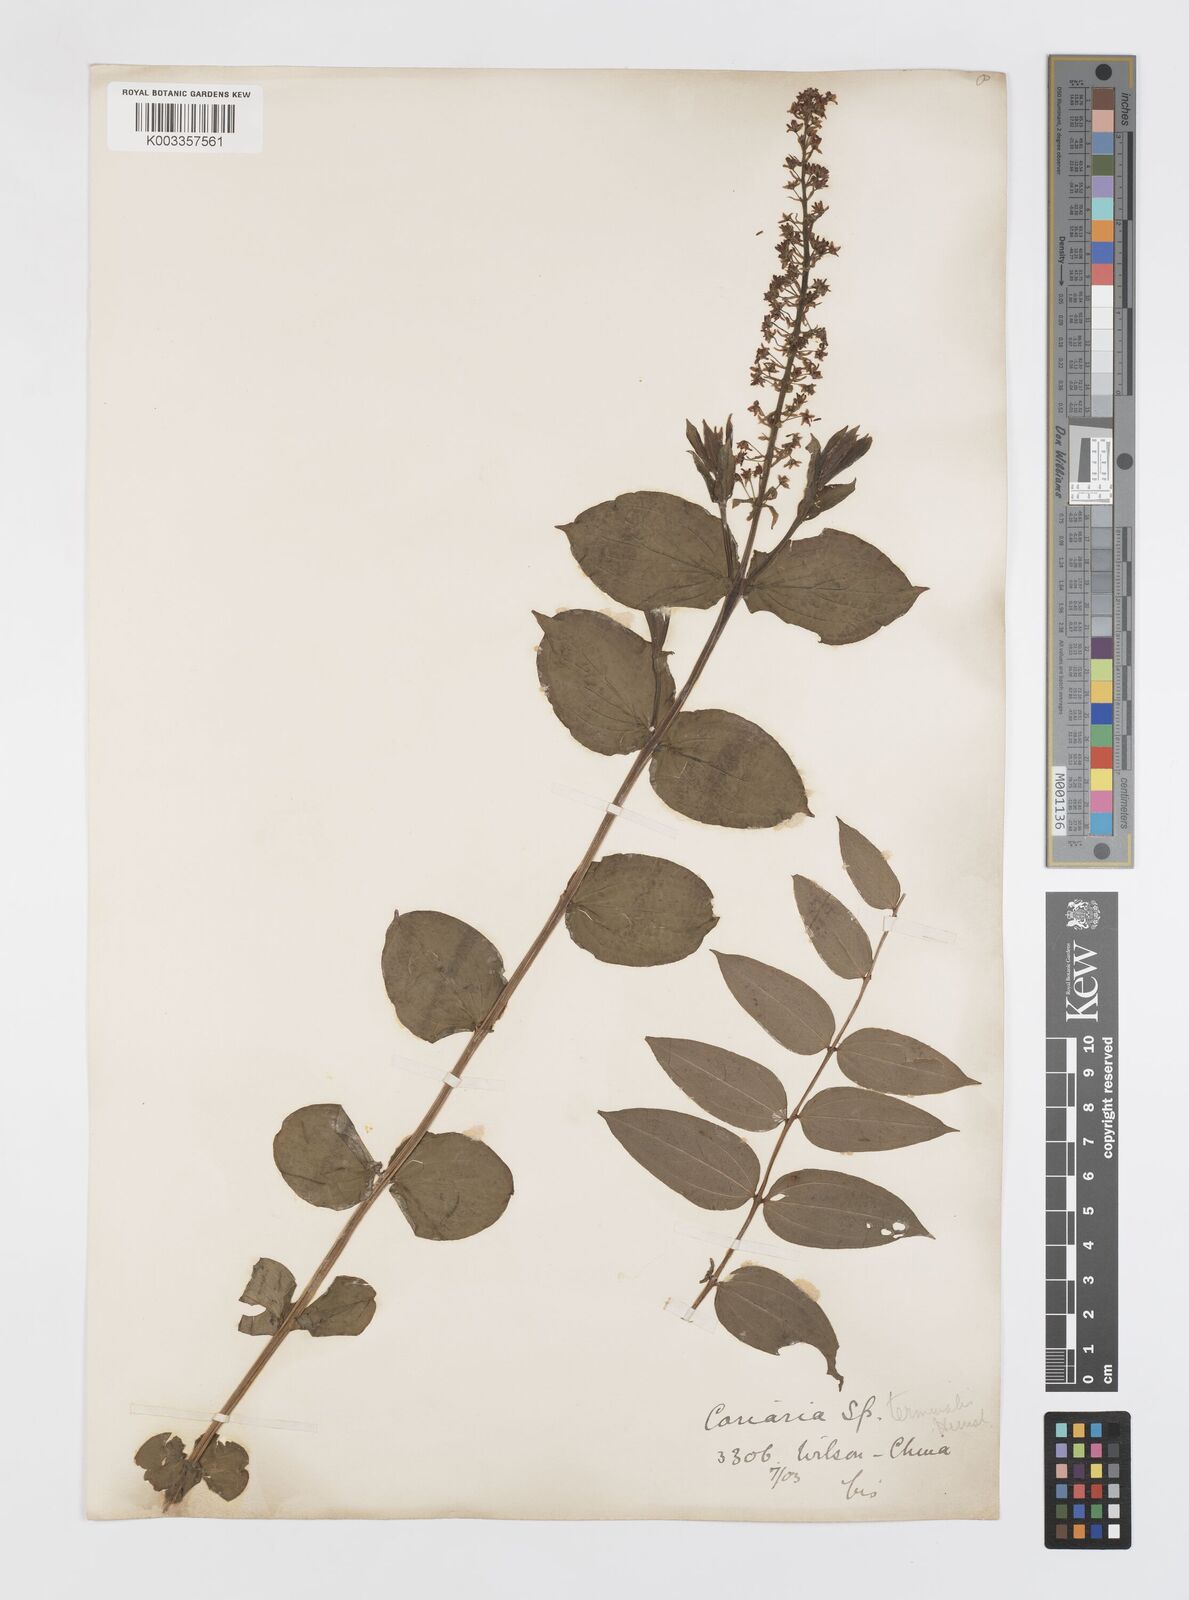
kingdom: Plantae
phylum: Tracheophyta
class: Magnoliopsida
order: Cucurbitales
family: Coriariaceae
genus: Coriaria
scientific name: Coriaria terminalis
